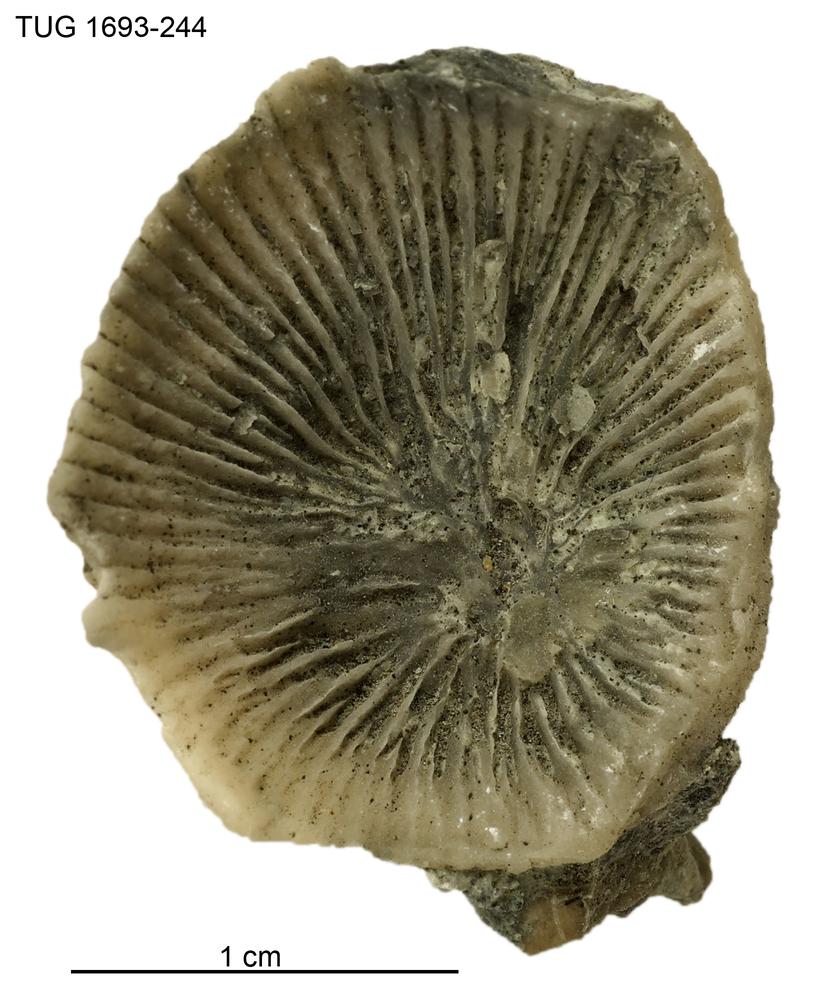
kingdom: Animalia
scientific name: Animalia
